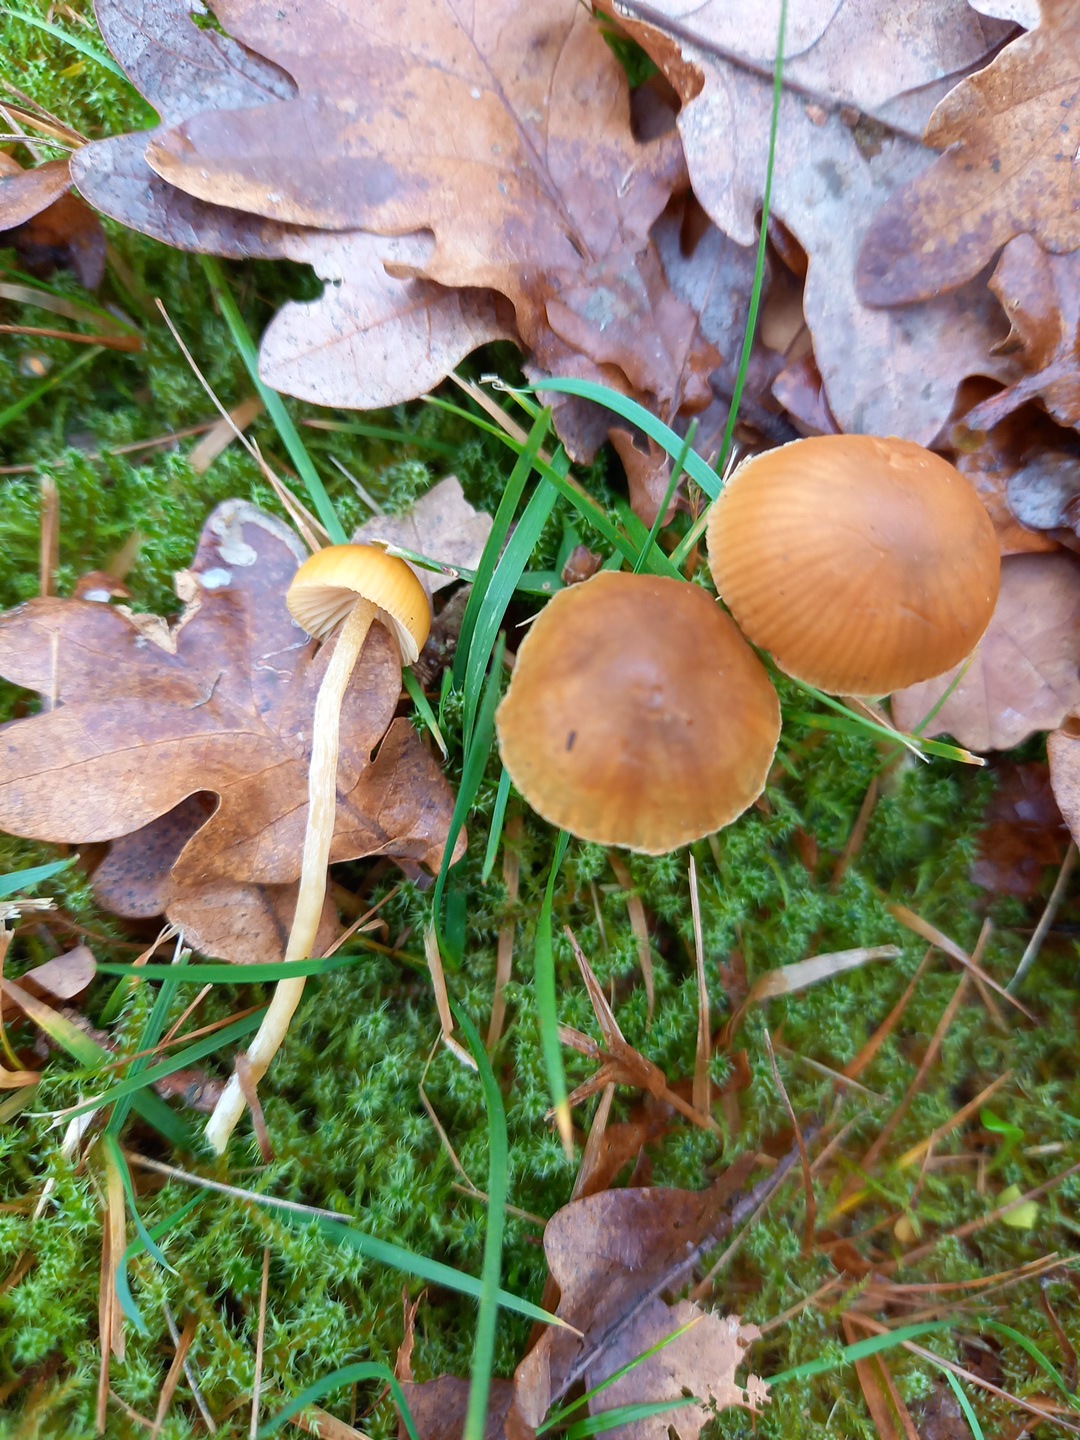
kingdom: Fungi
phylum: Basidiomycota
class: Agaricomycetes
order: Agaricales
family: Hymenogastraceae
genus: Galerina
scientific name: Galerina
